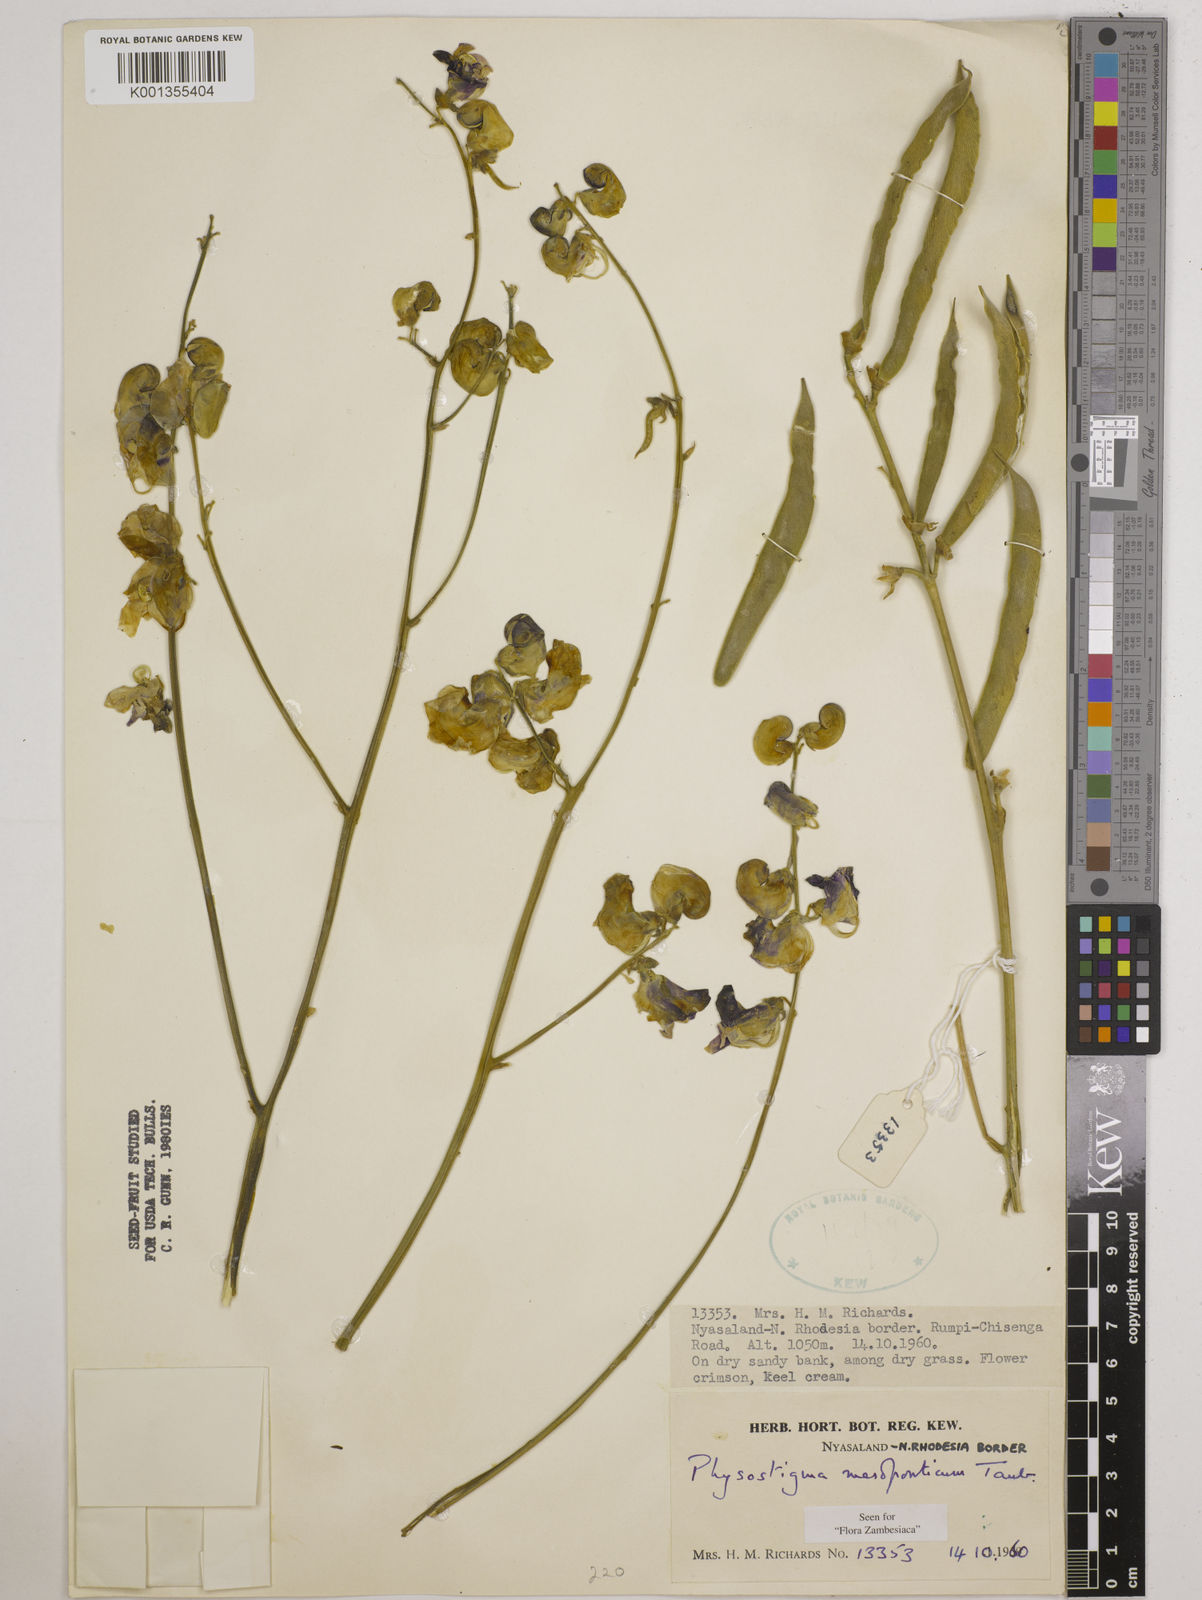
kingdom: Plantae
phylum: Tracheophyta
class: Magnoliopsida
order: Fabales
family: Fabaceae
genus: Physostigma
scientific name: Physostigma mesoponticum
